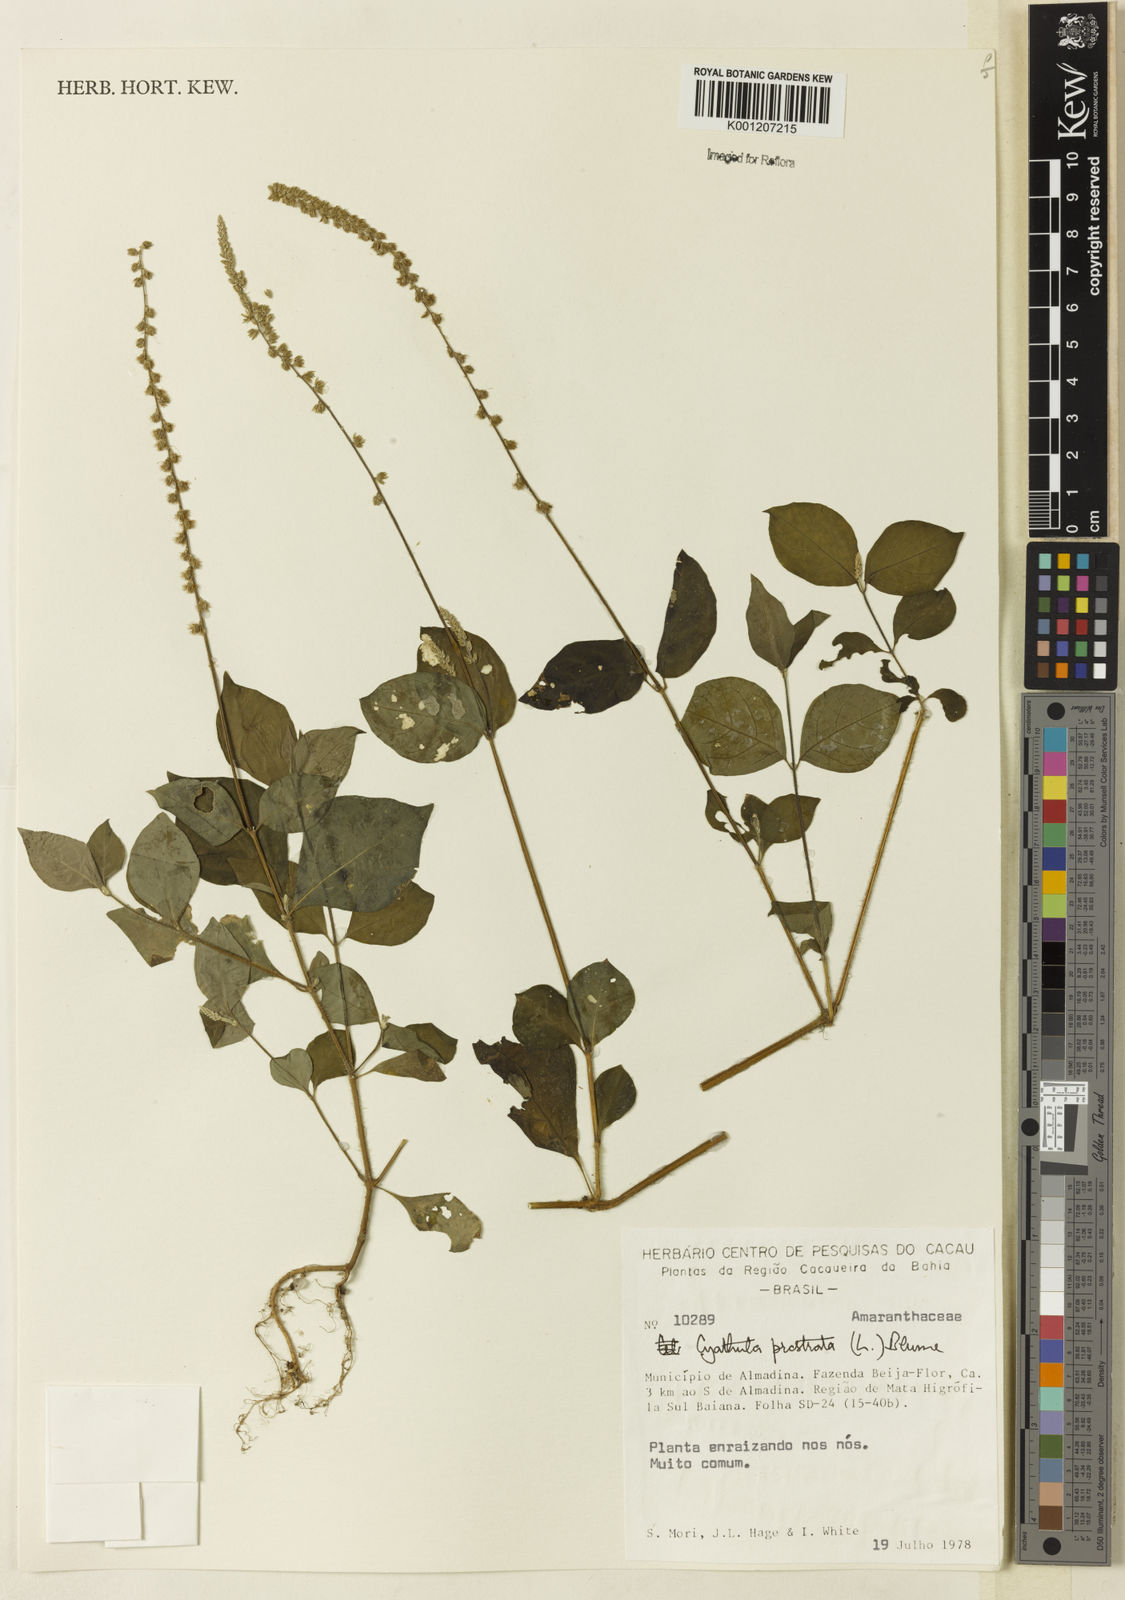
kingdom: Plantae
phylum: Tracheophyta
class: Magnoliopsida
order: Caryophyllales
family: Amaranthaceae
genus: Cyathula
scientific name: Cyathula prostrata
